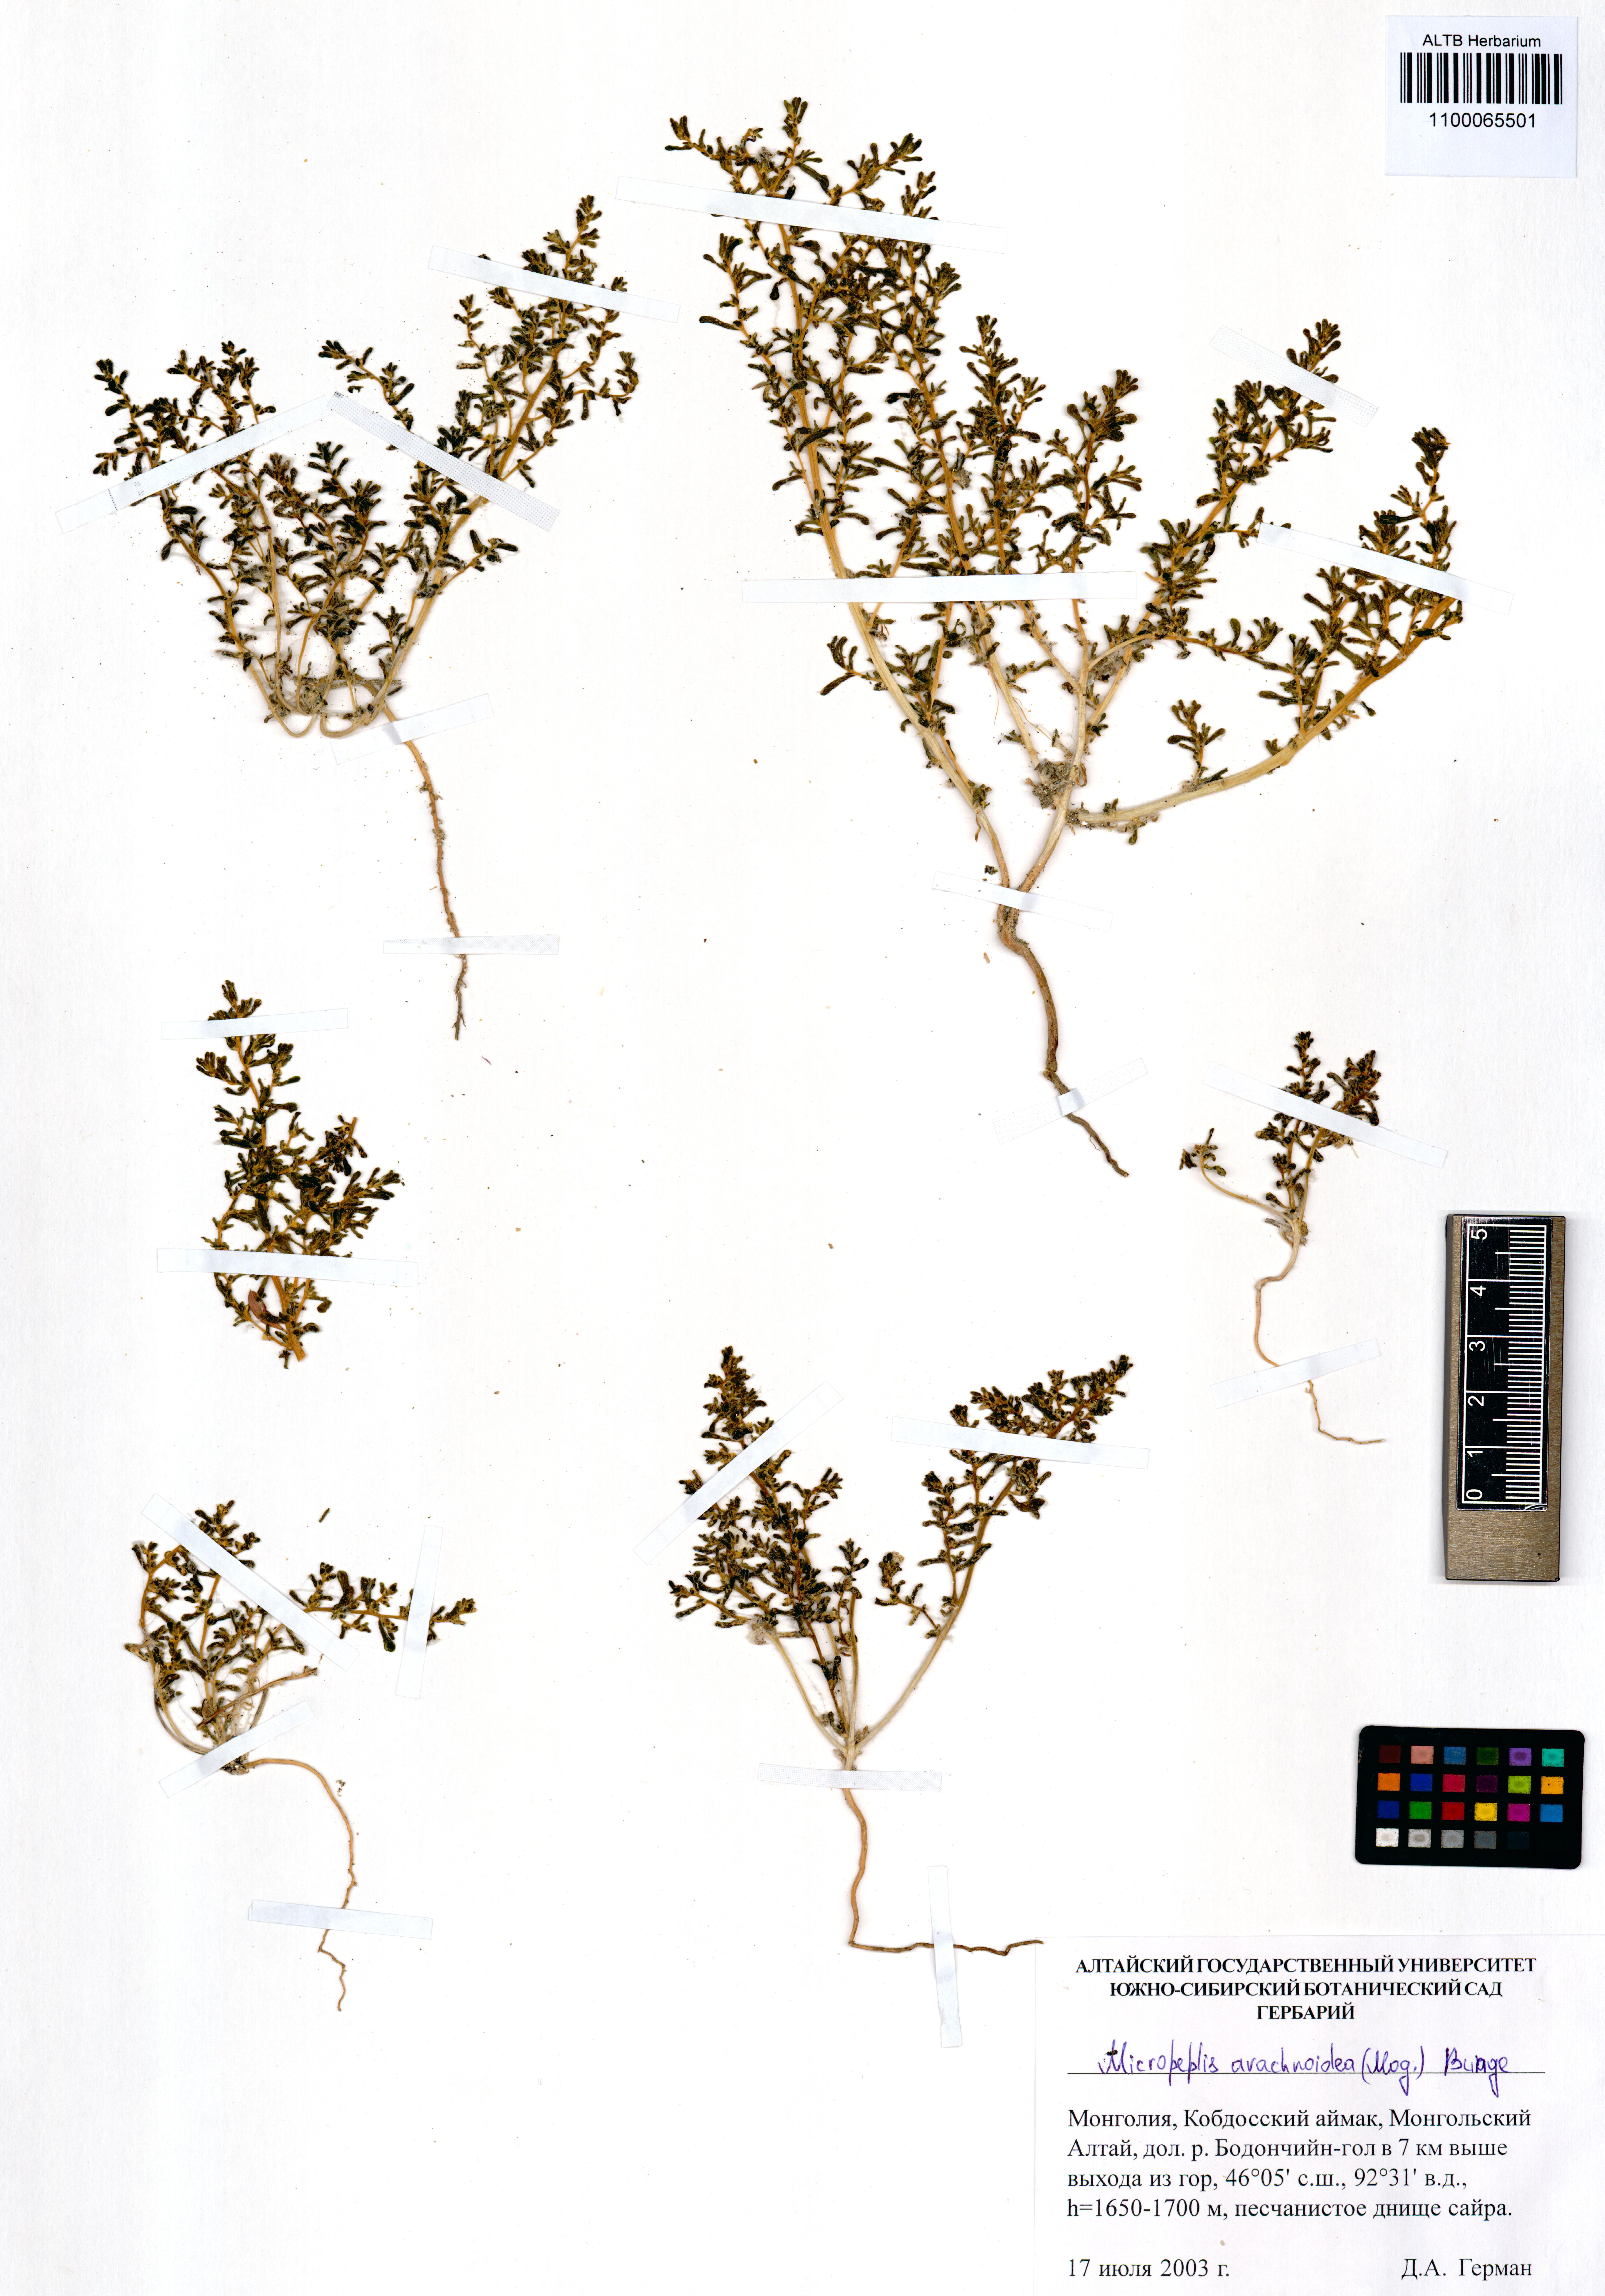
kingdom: Plantae
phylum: Tracheophyta
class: Magnoliopsida
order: Caryophyllales
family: Amaranthaceae
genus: Halogeton
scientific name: Halogeton arachnoideus
